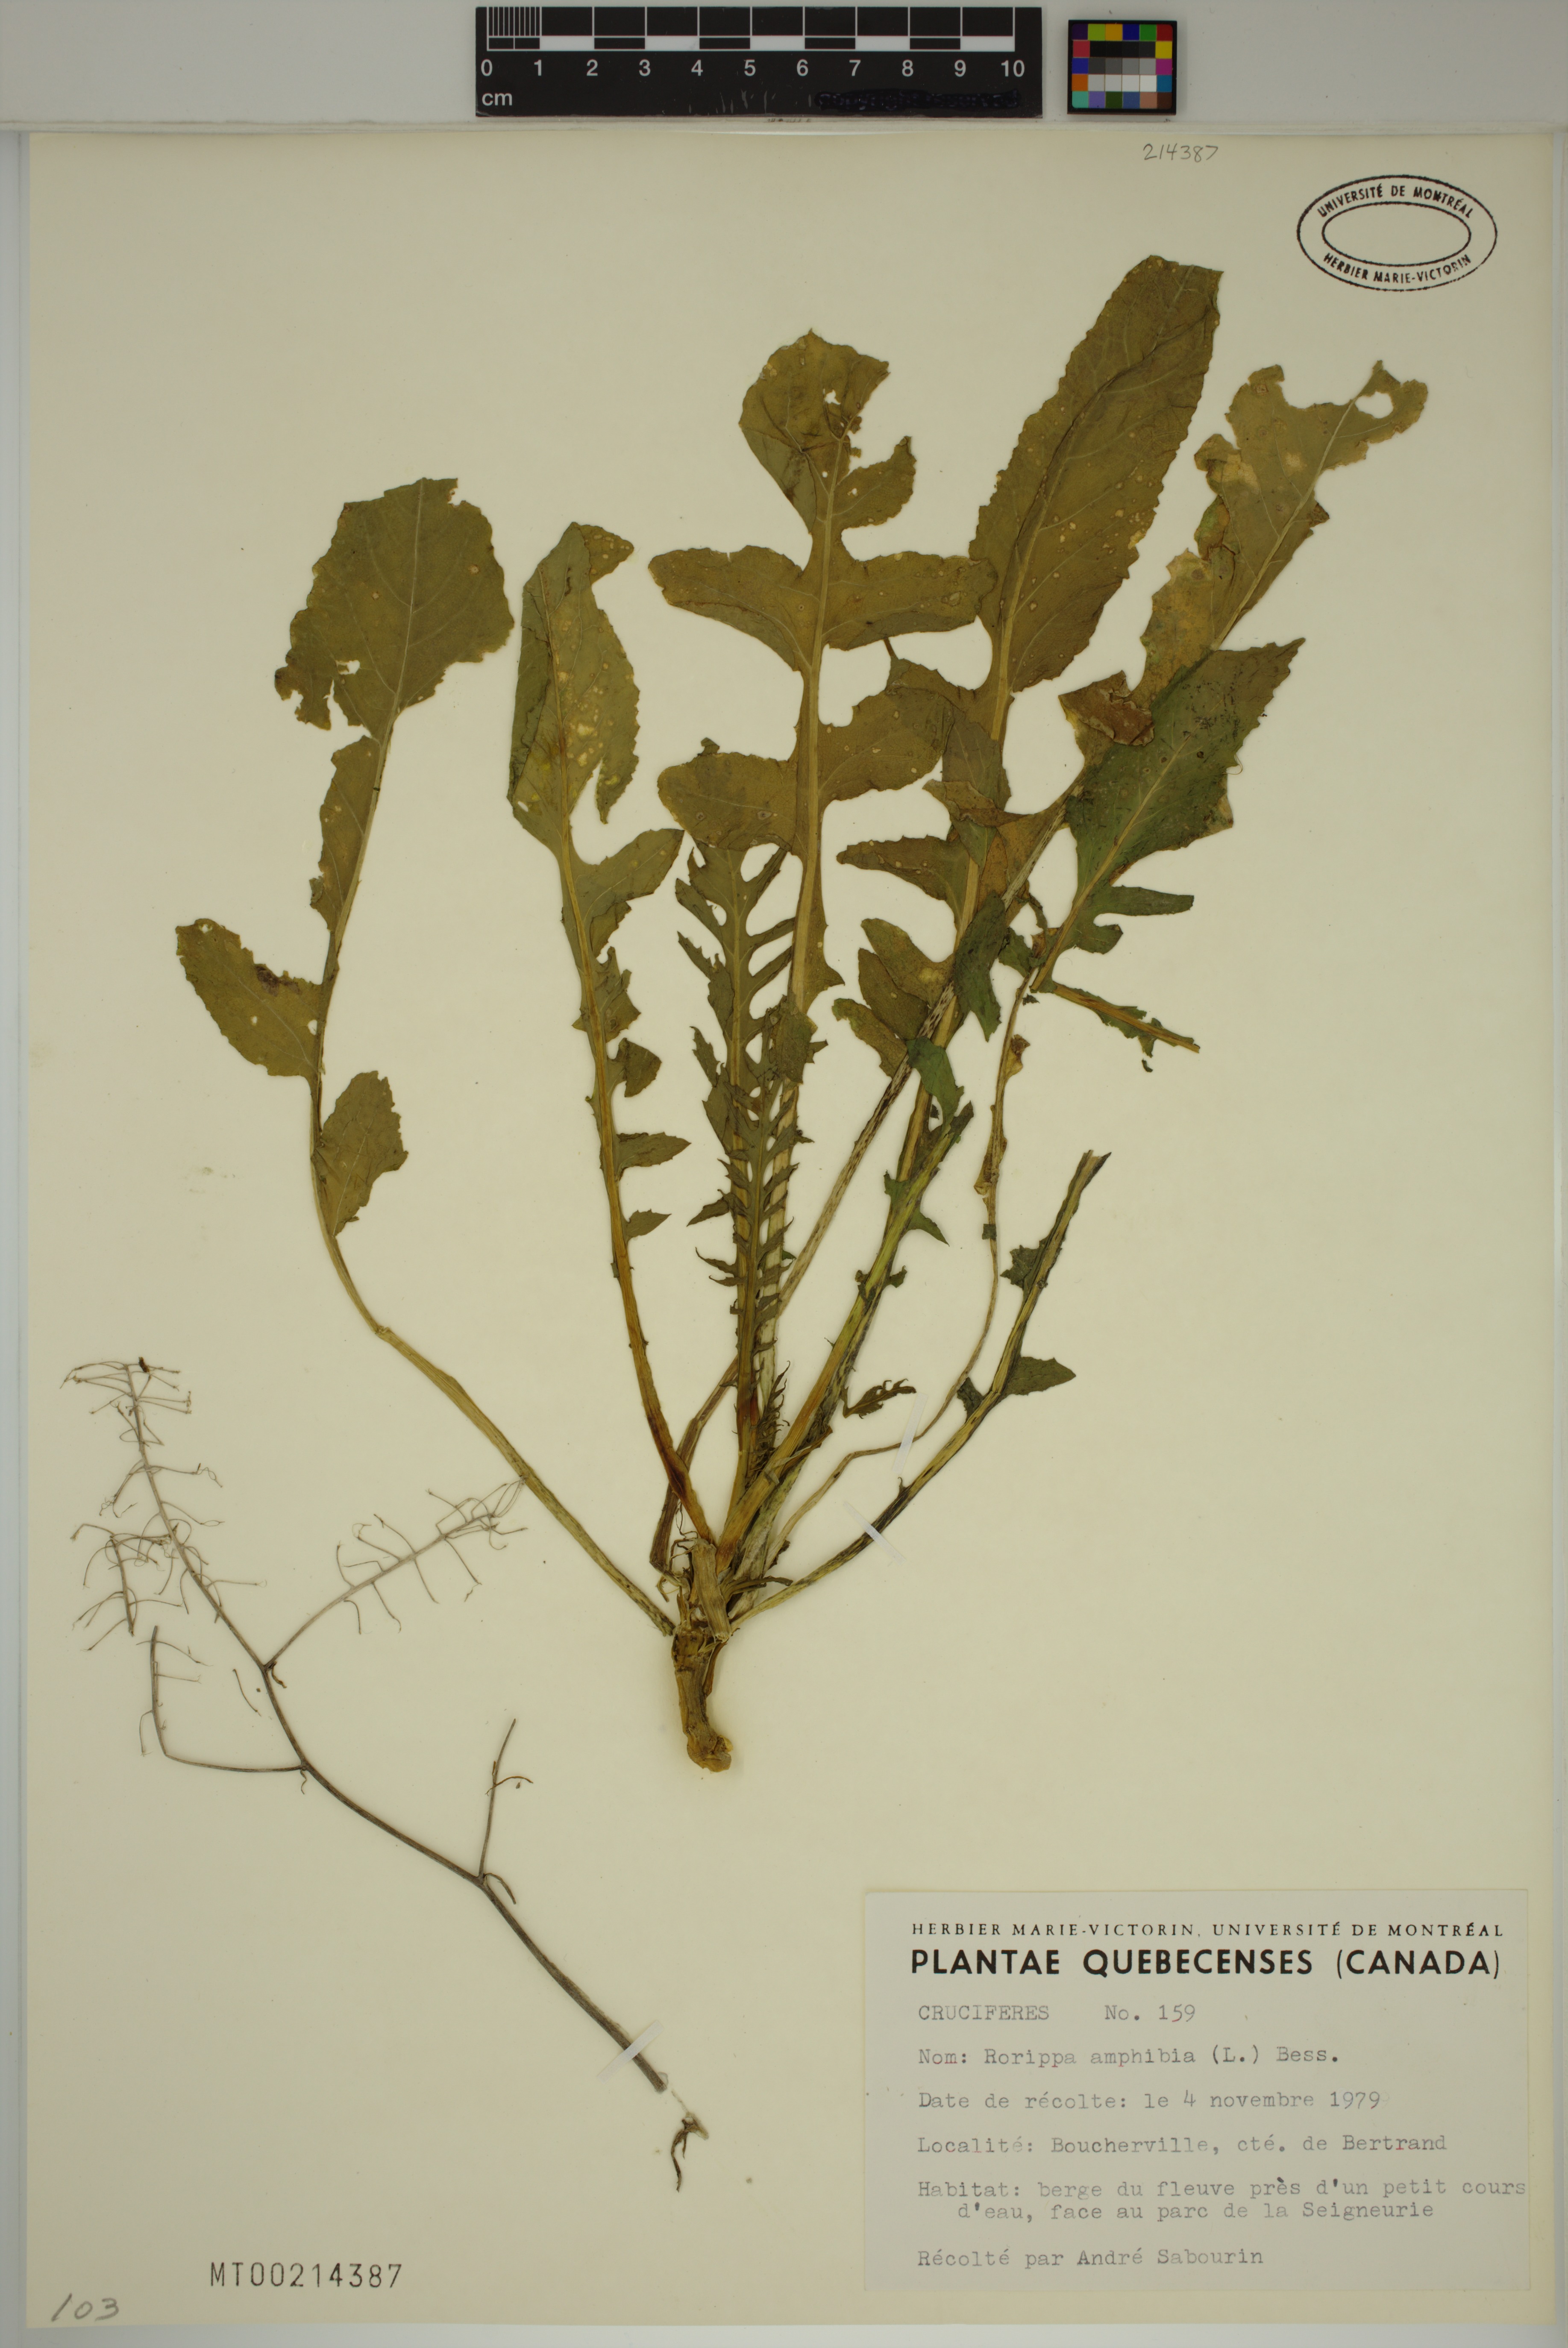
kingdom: Plantae
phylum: Tracheophyta
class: Magnoliopsida
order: Brassicales
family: Brassicaceae
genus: Rorippa
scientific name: Rorippa amphibia
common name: Great yellow-cress
